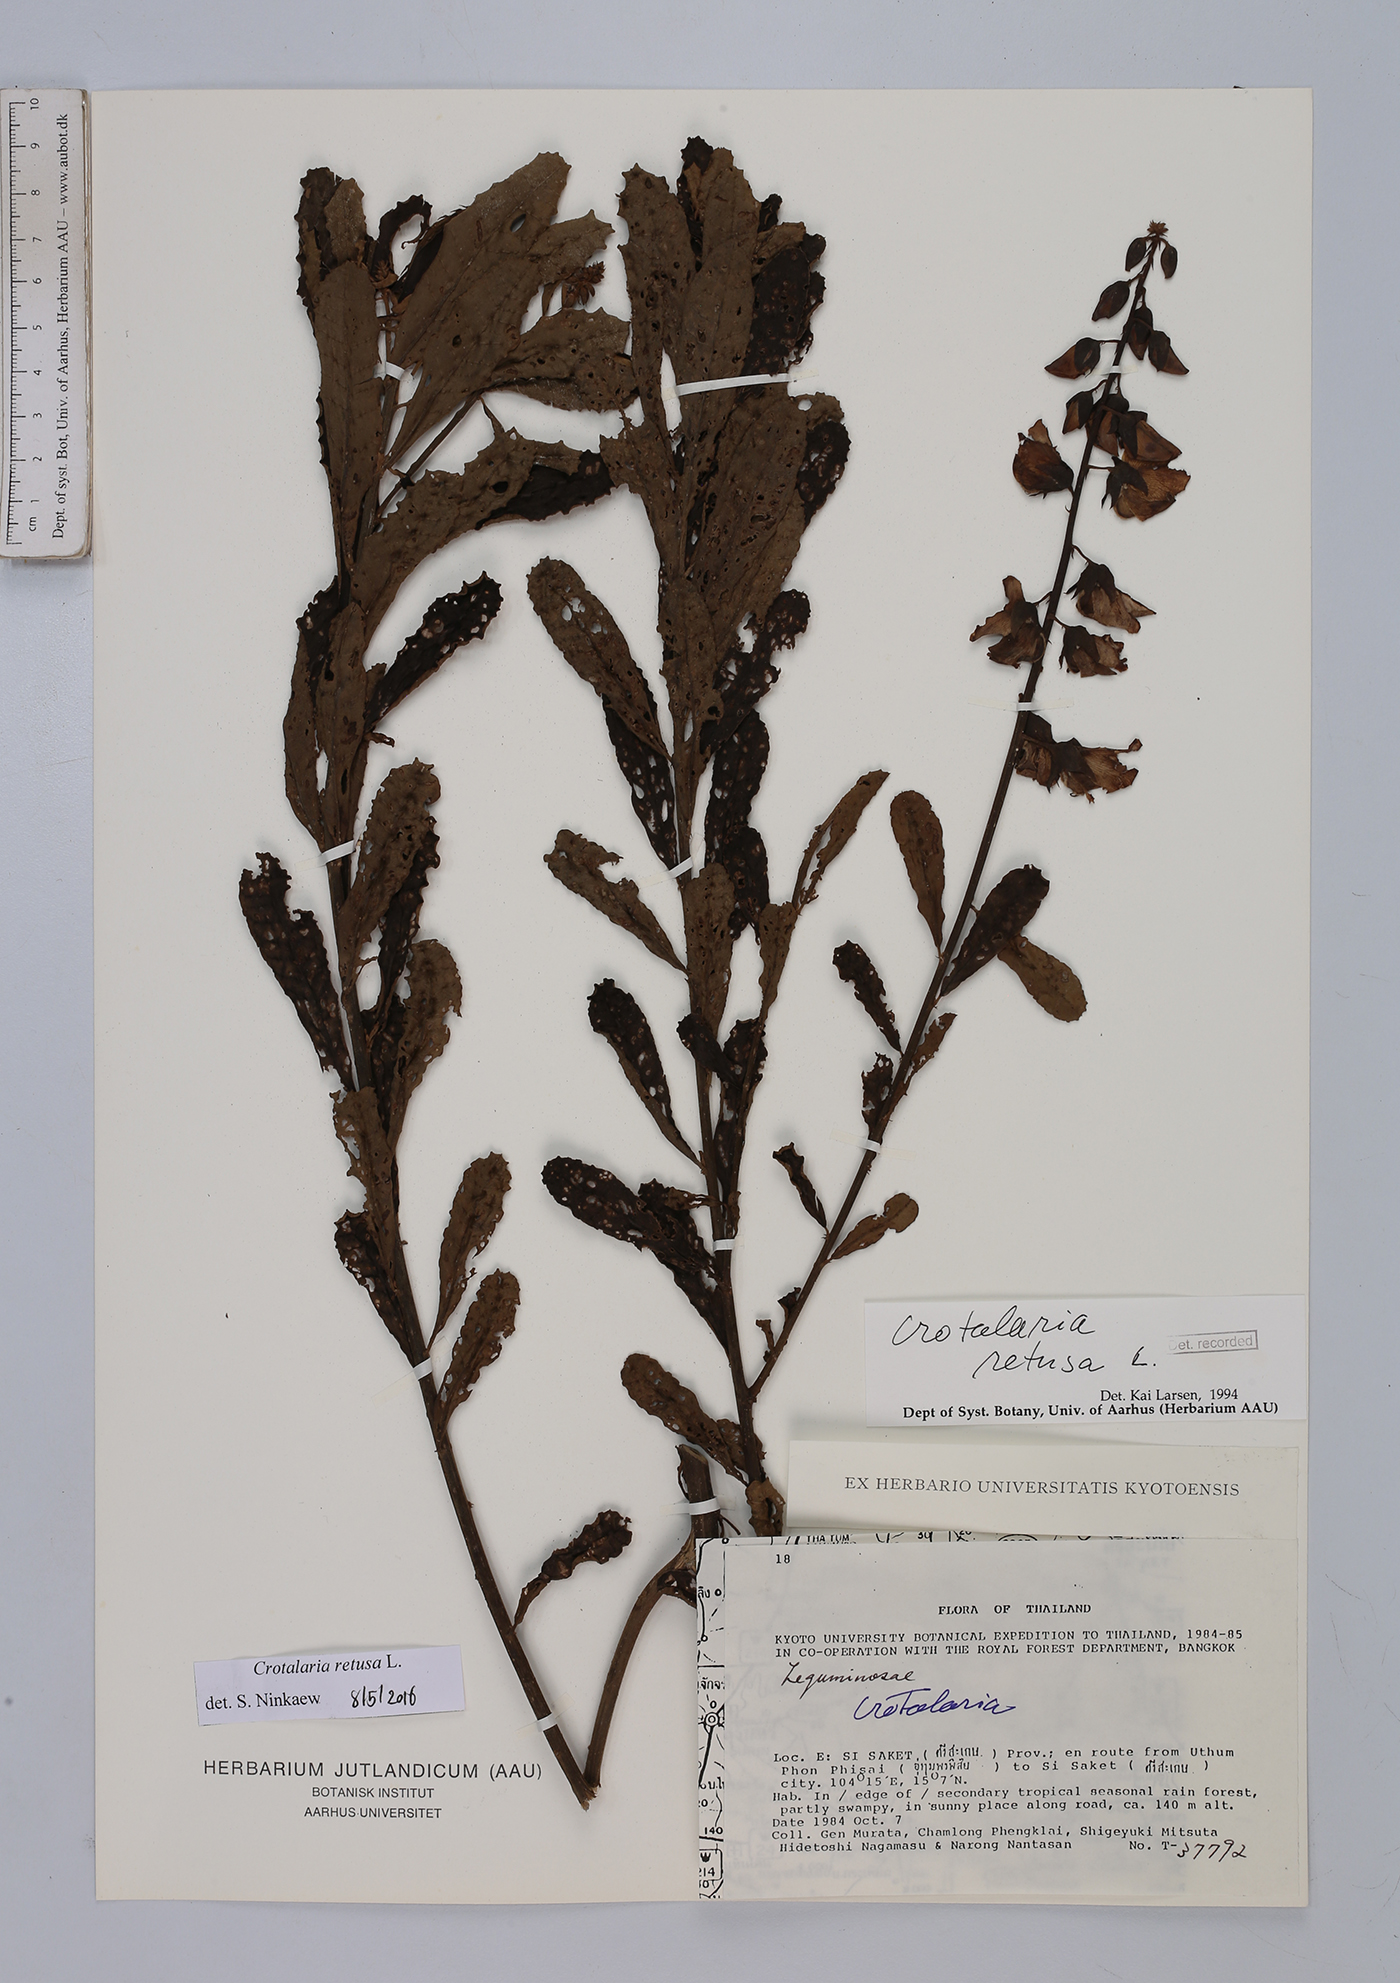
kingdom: Plantae
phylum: Tracheophyta
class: Magnoliopsida
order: Fabales
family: Fabaceae
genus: Crotalaria
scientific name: Crotalaria retusa
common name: Rattleweed
